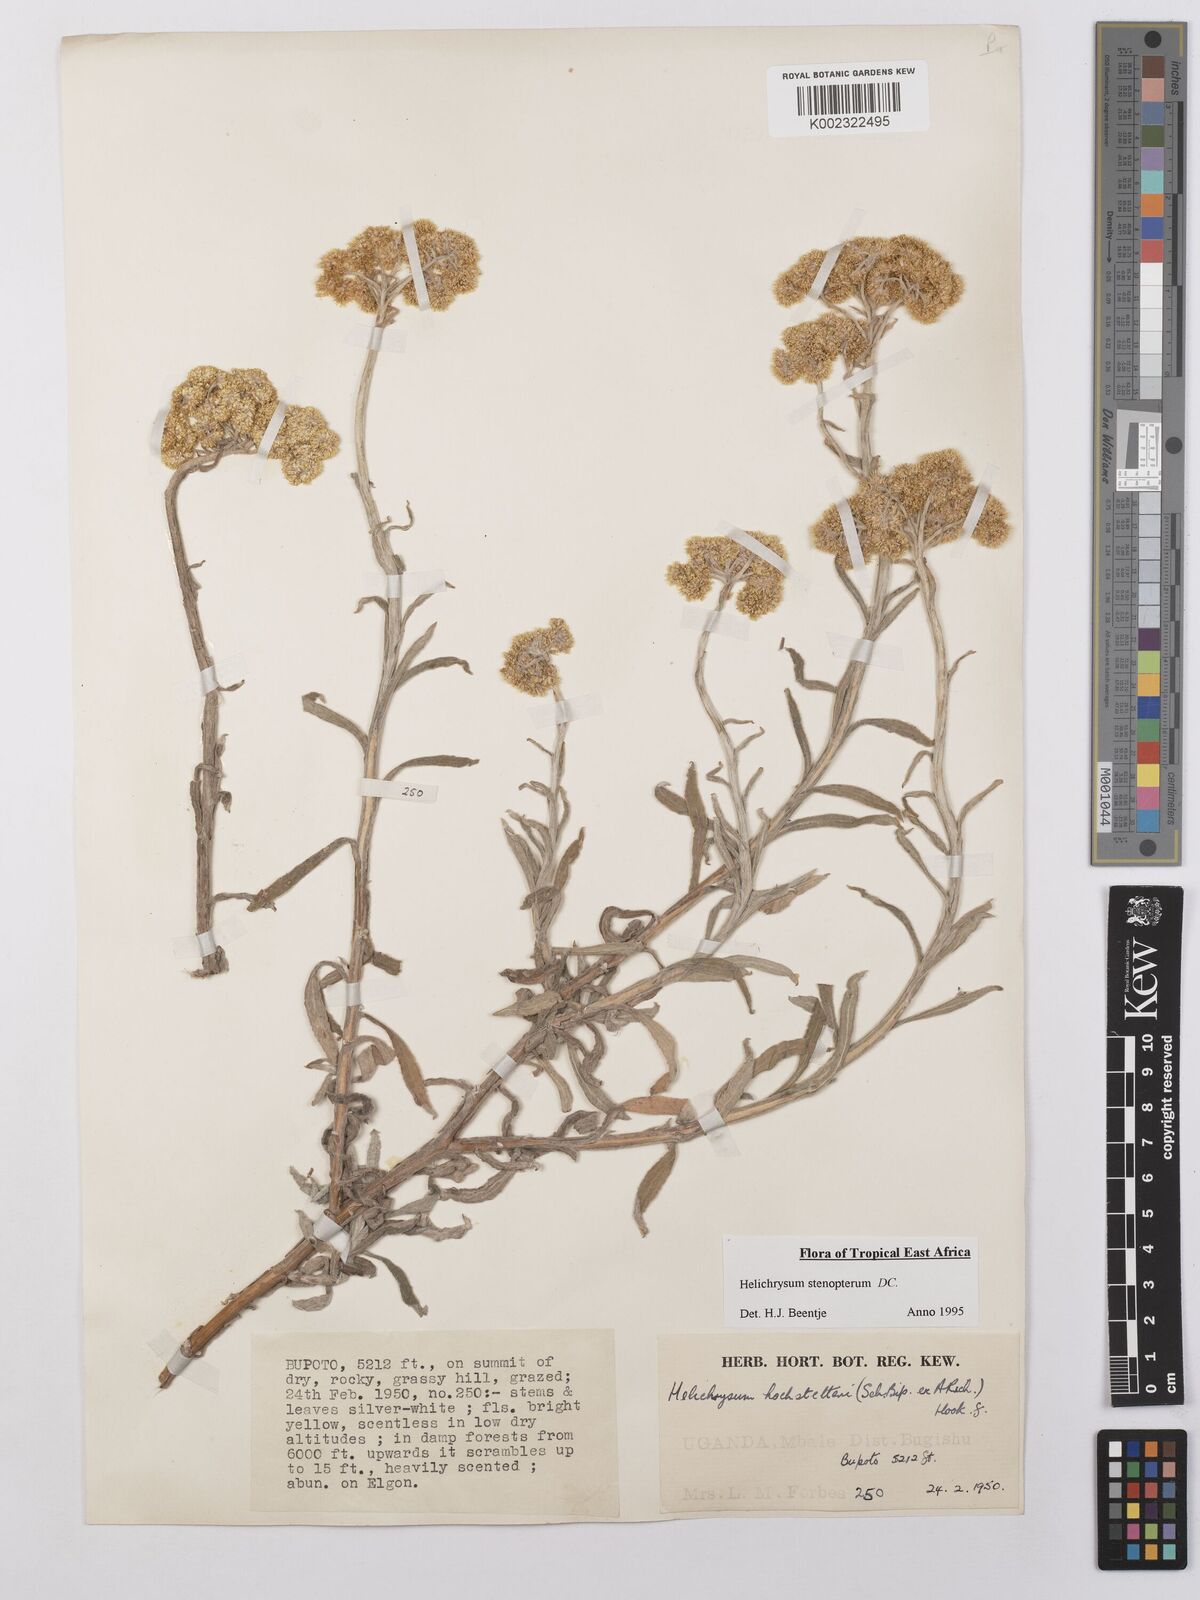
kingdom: Plantae
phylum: Tracheophyta
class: Magnoliopsida
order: Asterales
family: Asteraceae
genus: Helichrysum
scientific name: Helichrysum stenopterum
